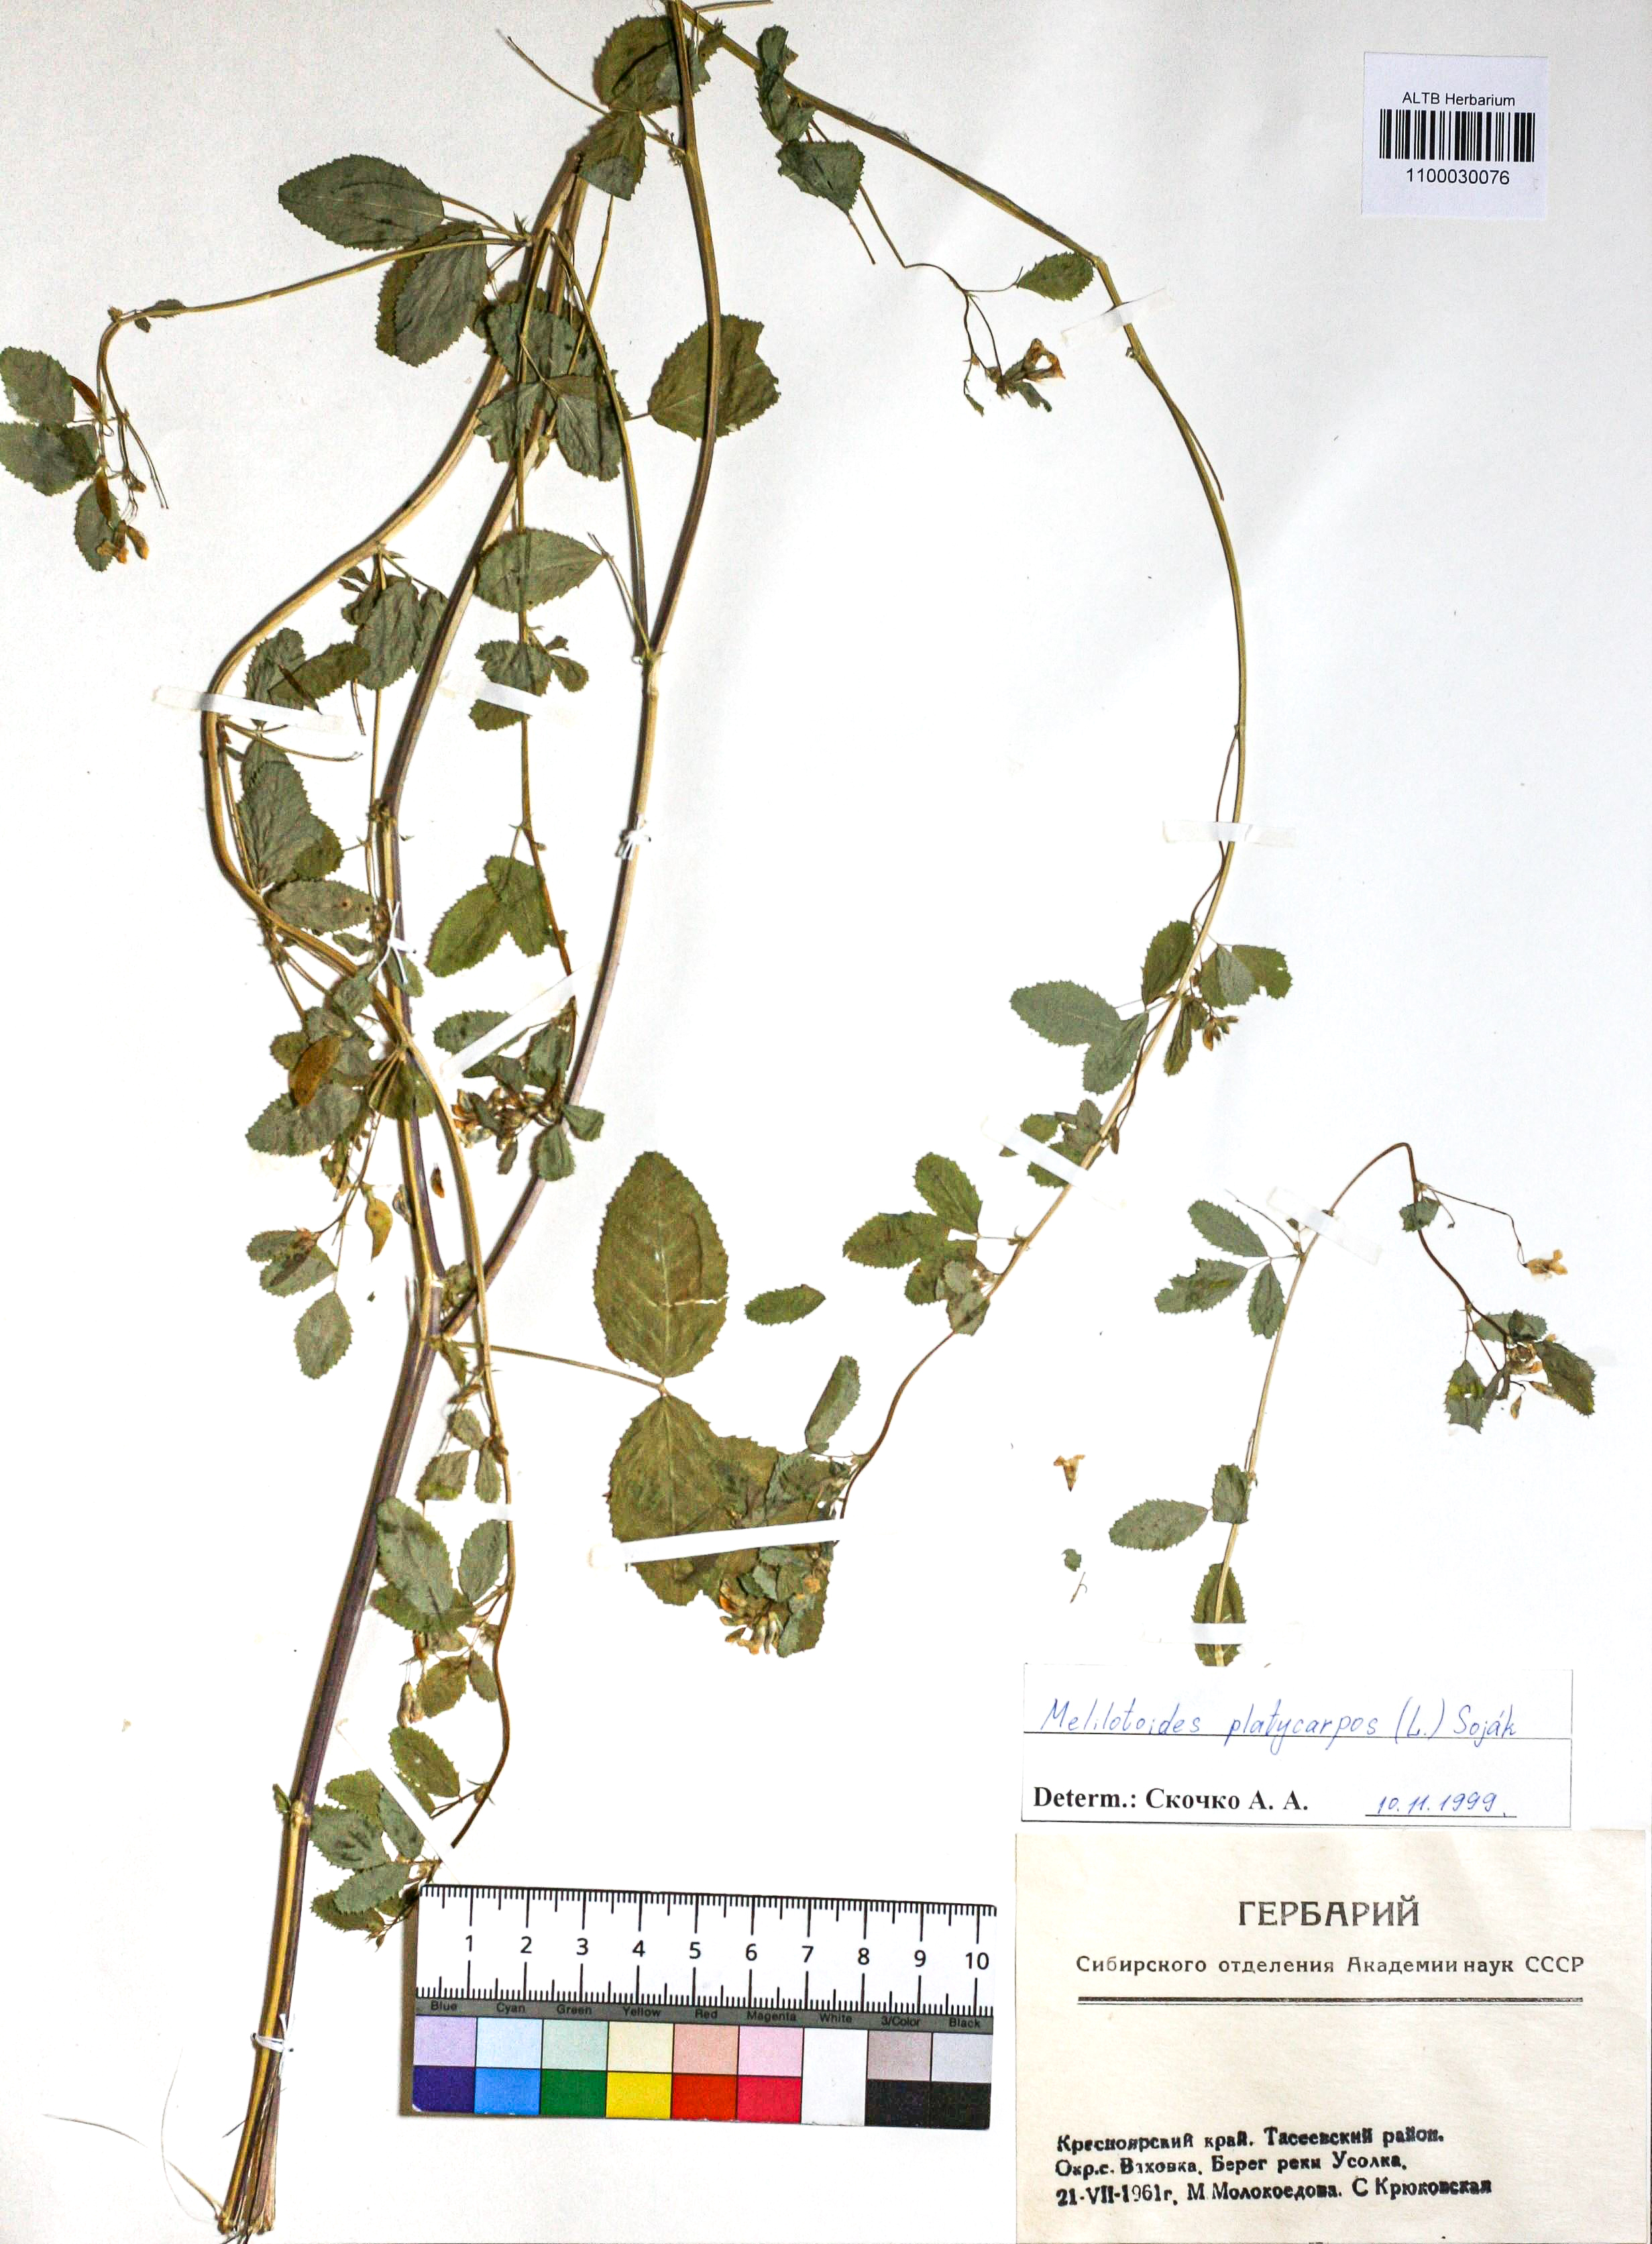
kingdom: Plantae
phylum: Tracheophyta
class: Magnoliopsida
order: Fabales
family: Fabaceae
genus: Medicago
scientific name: Medicago platycarpos
